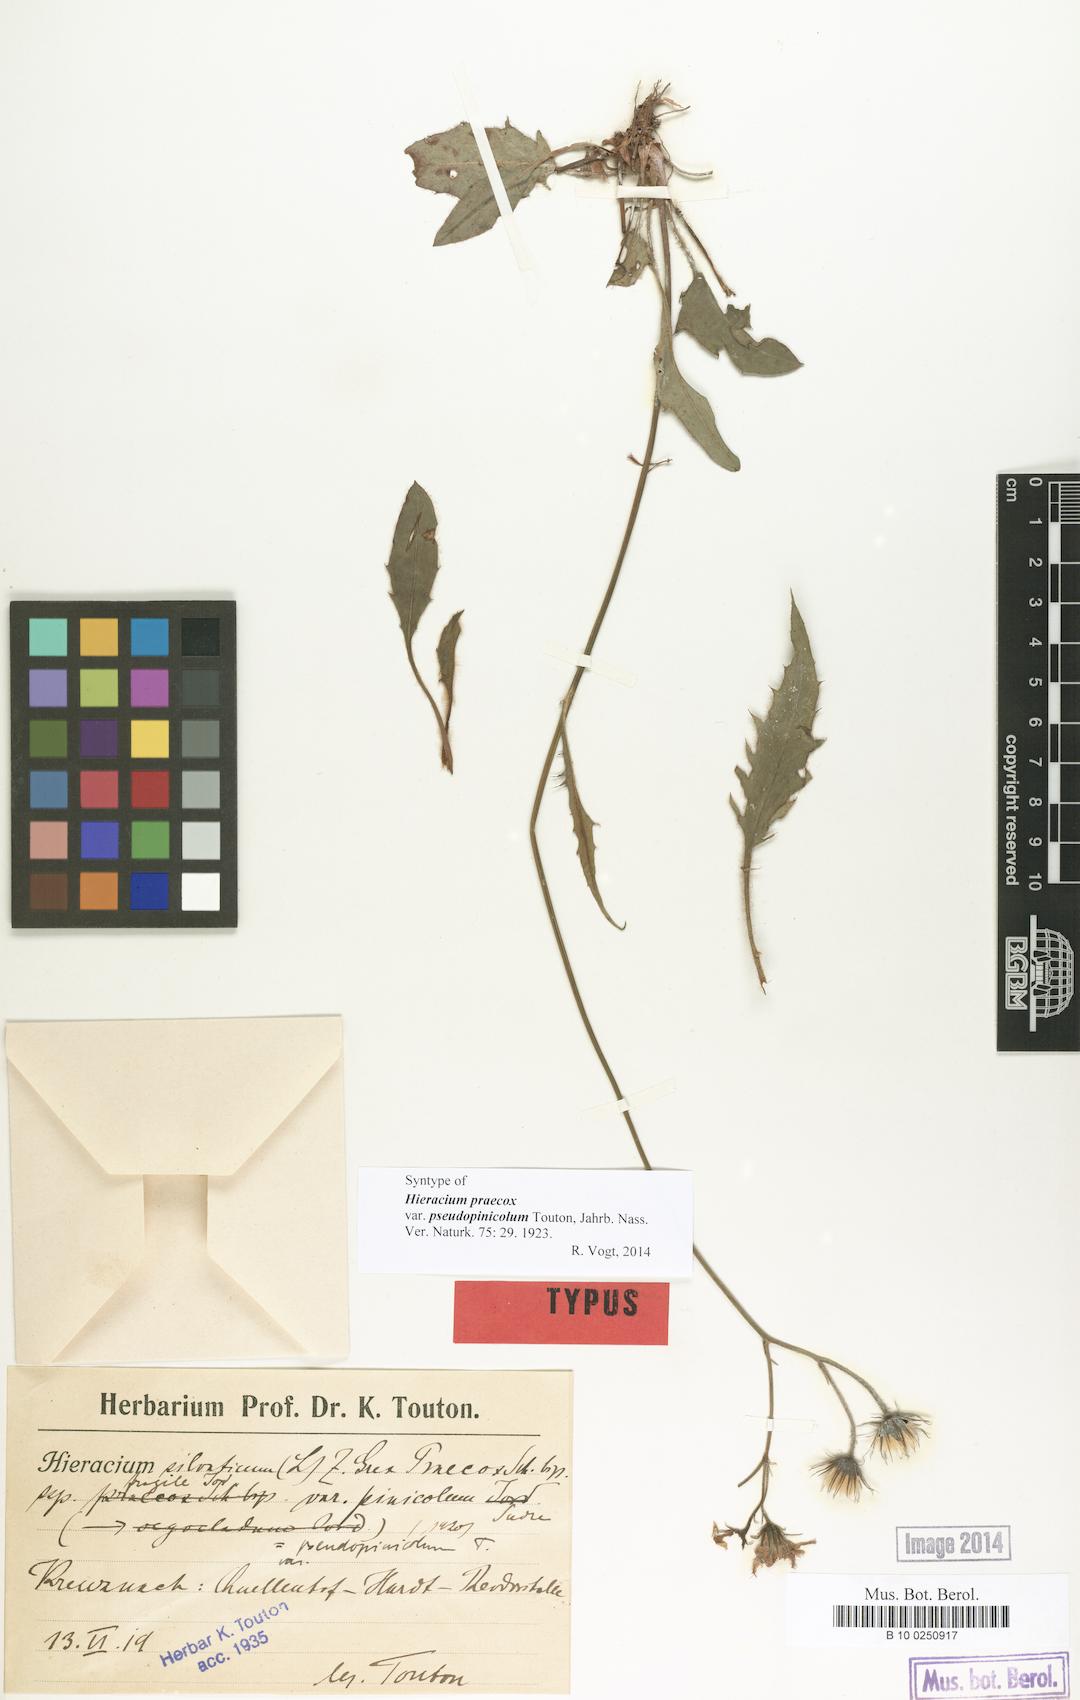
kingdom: Plantae
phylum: Tracheophyta
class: Magnoliopsida
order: Asterales
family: Asteraceae
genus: Hieracium
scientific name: Hieracium praecox
